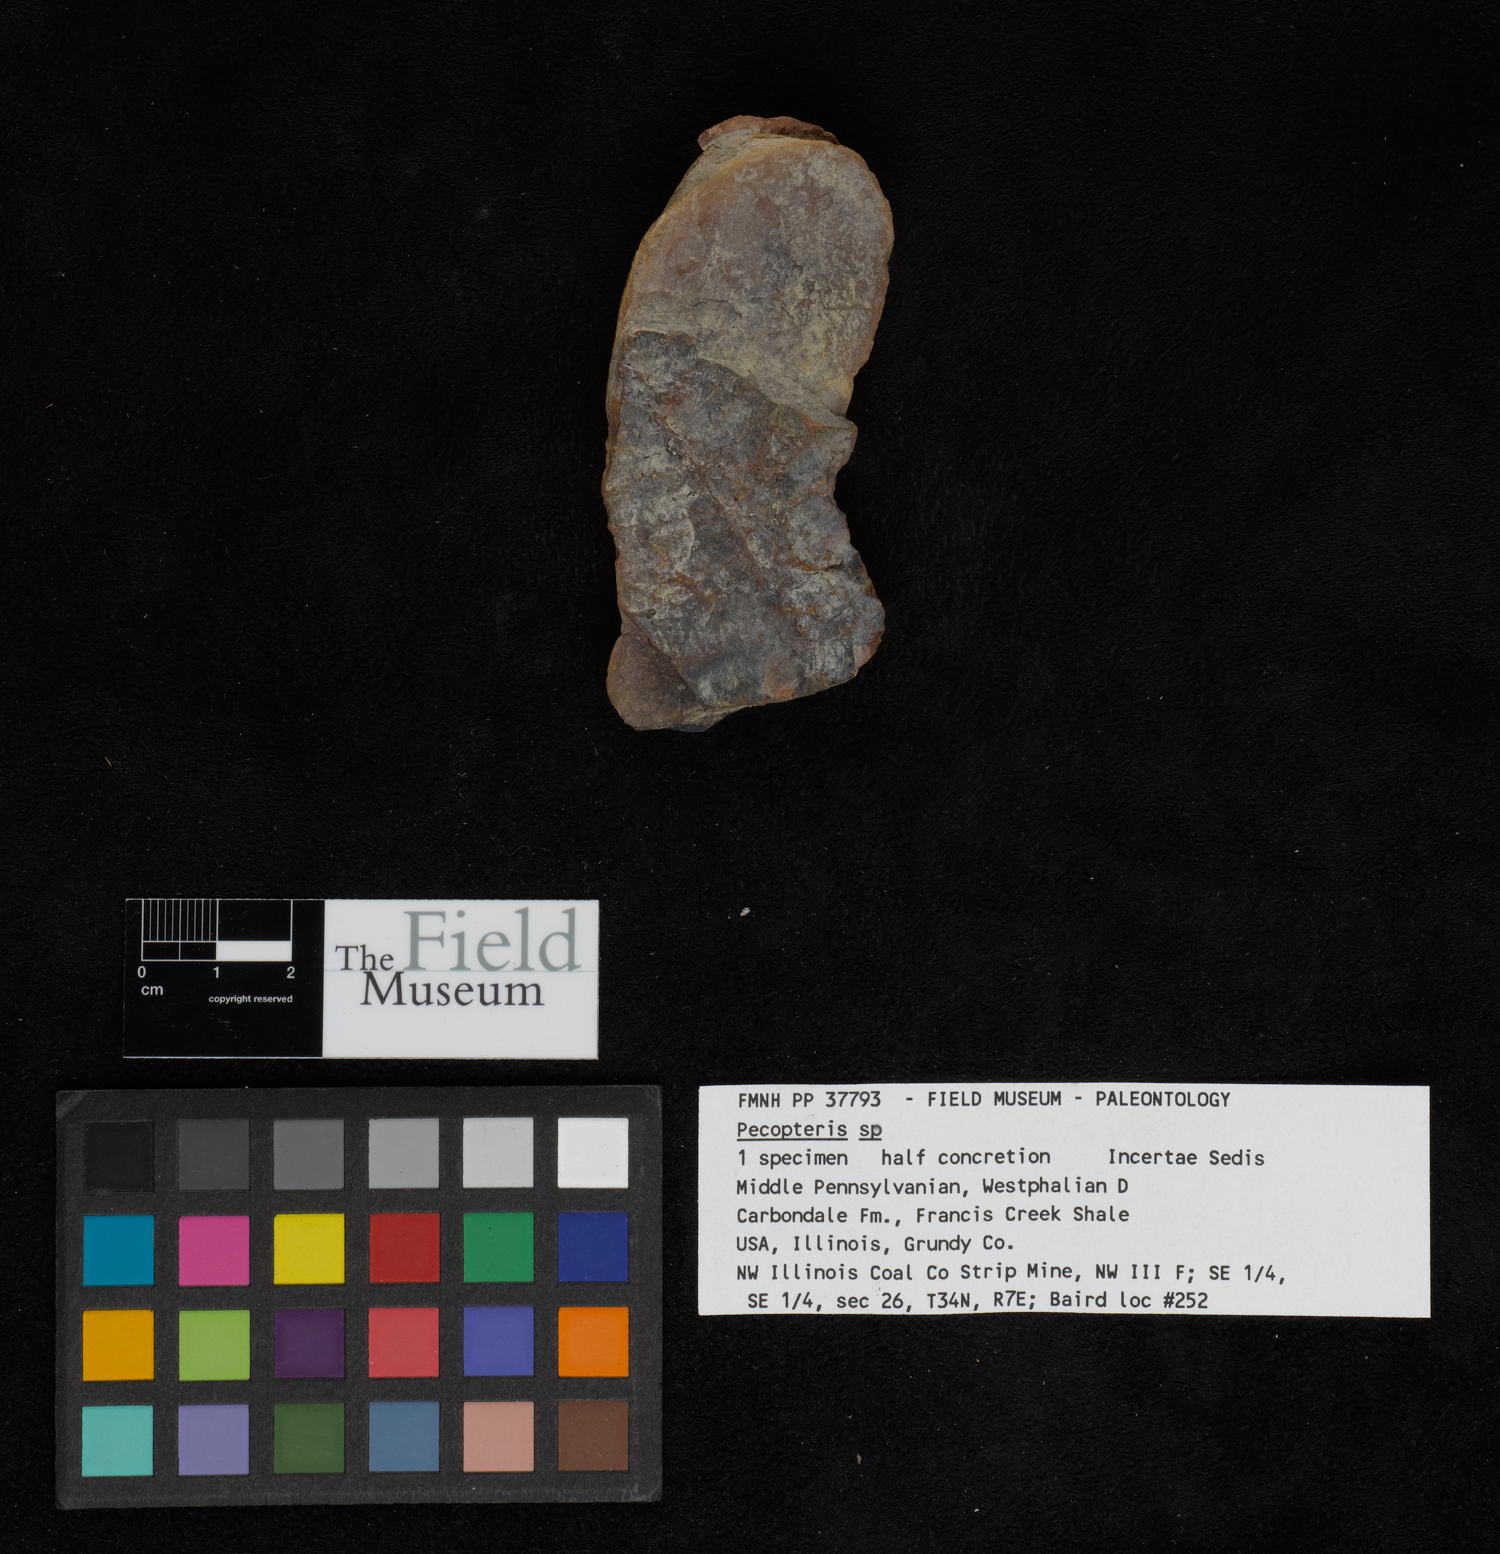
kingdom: Plantae
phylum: Tracheophyta
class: Polypodiopsida
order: Marattiales
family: Asterothecaceae
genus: Pecopteris
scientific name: Pecopteris
